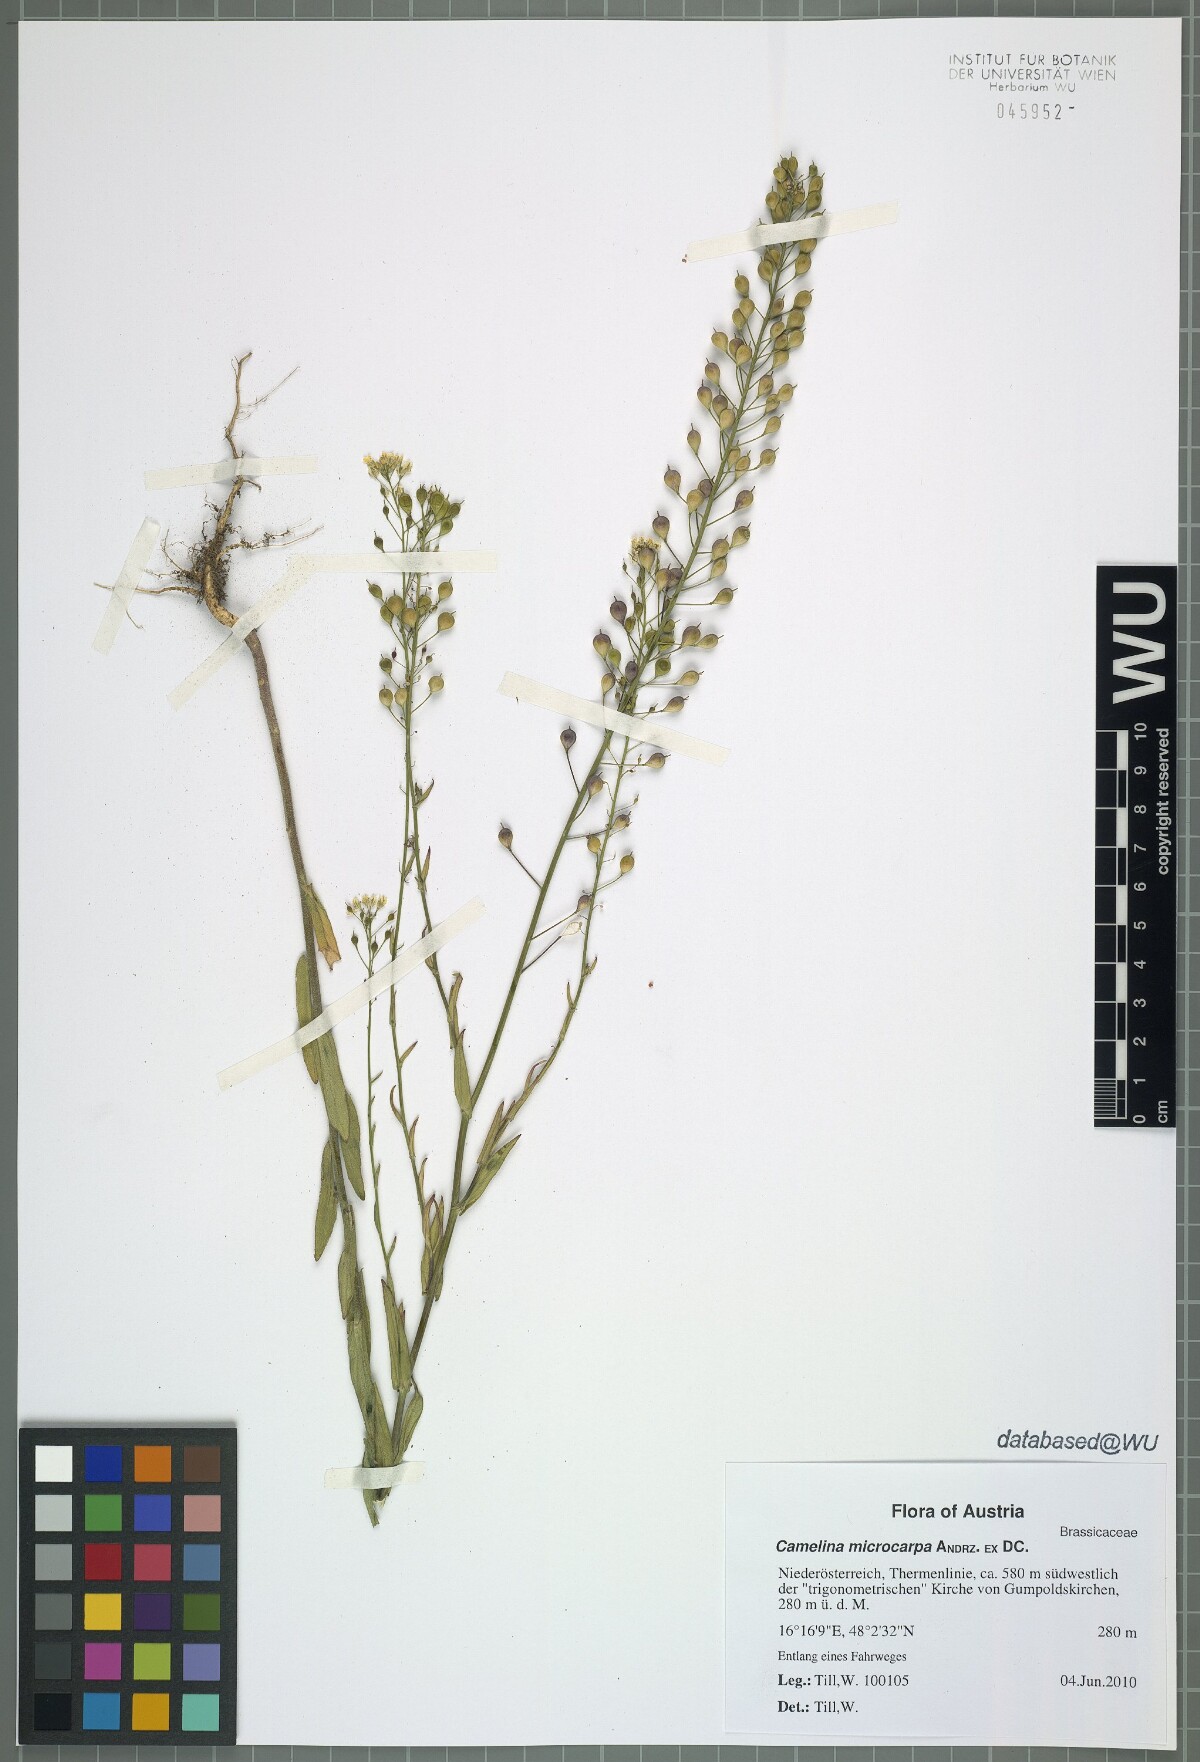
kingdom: Plantae
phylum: Tracheophyta
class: Magnoliopsida
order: Brassicales
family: Brassicaceae
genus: Camelina
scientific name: Camelina microcarpa
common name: Lesser gold-of-pleasure
